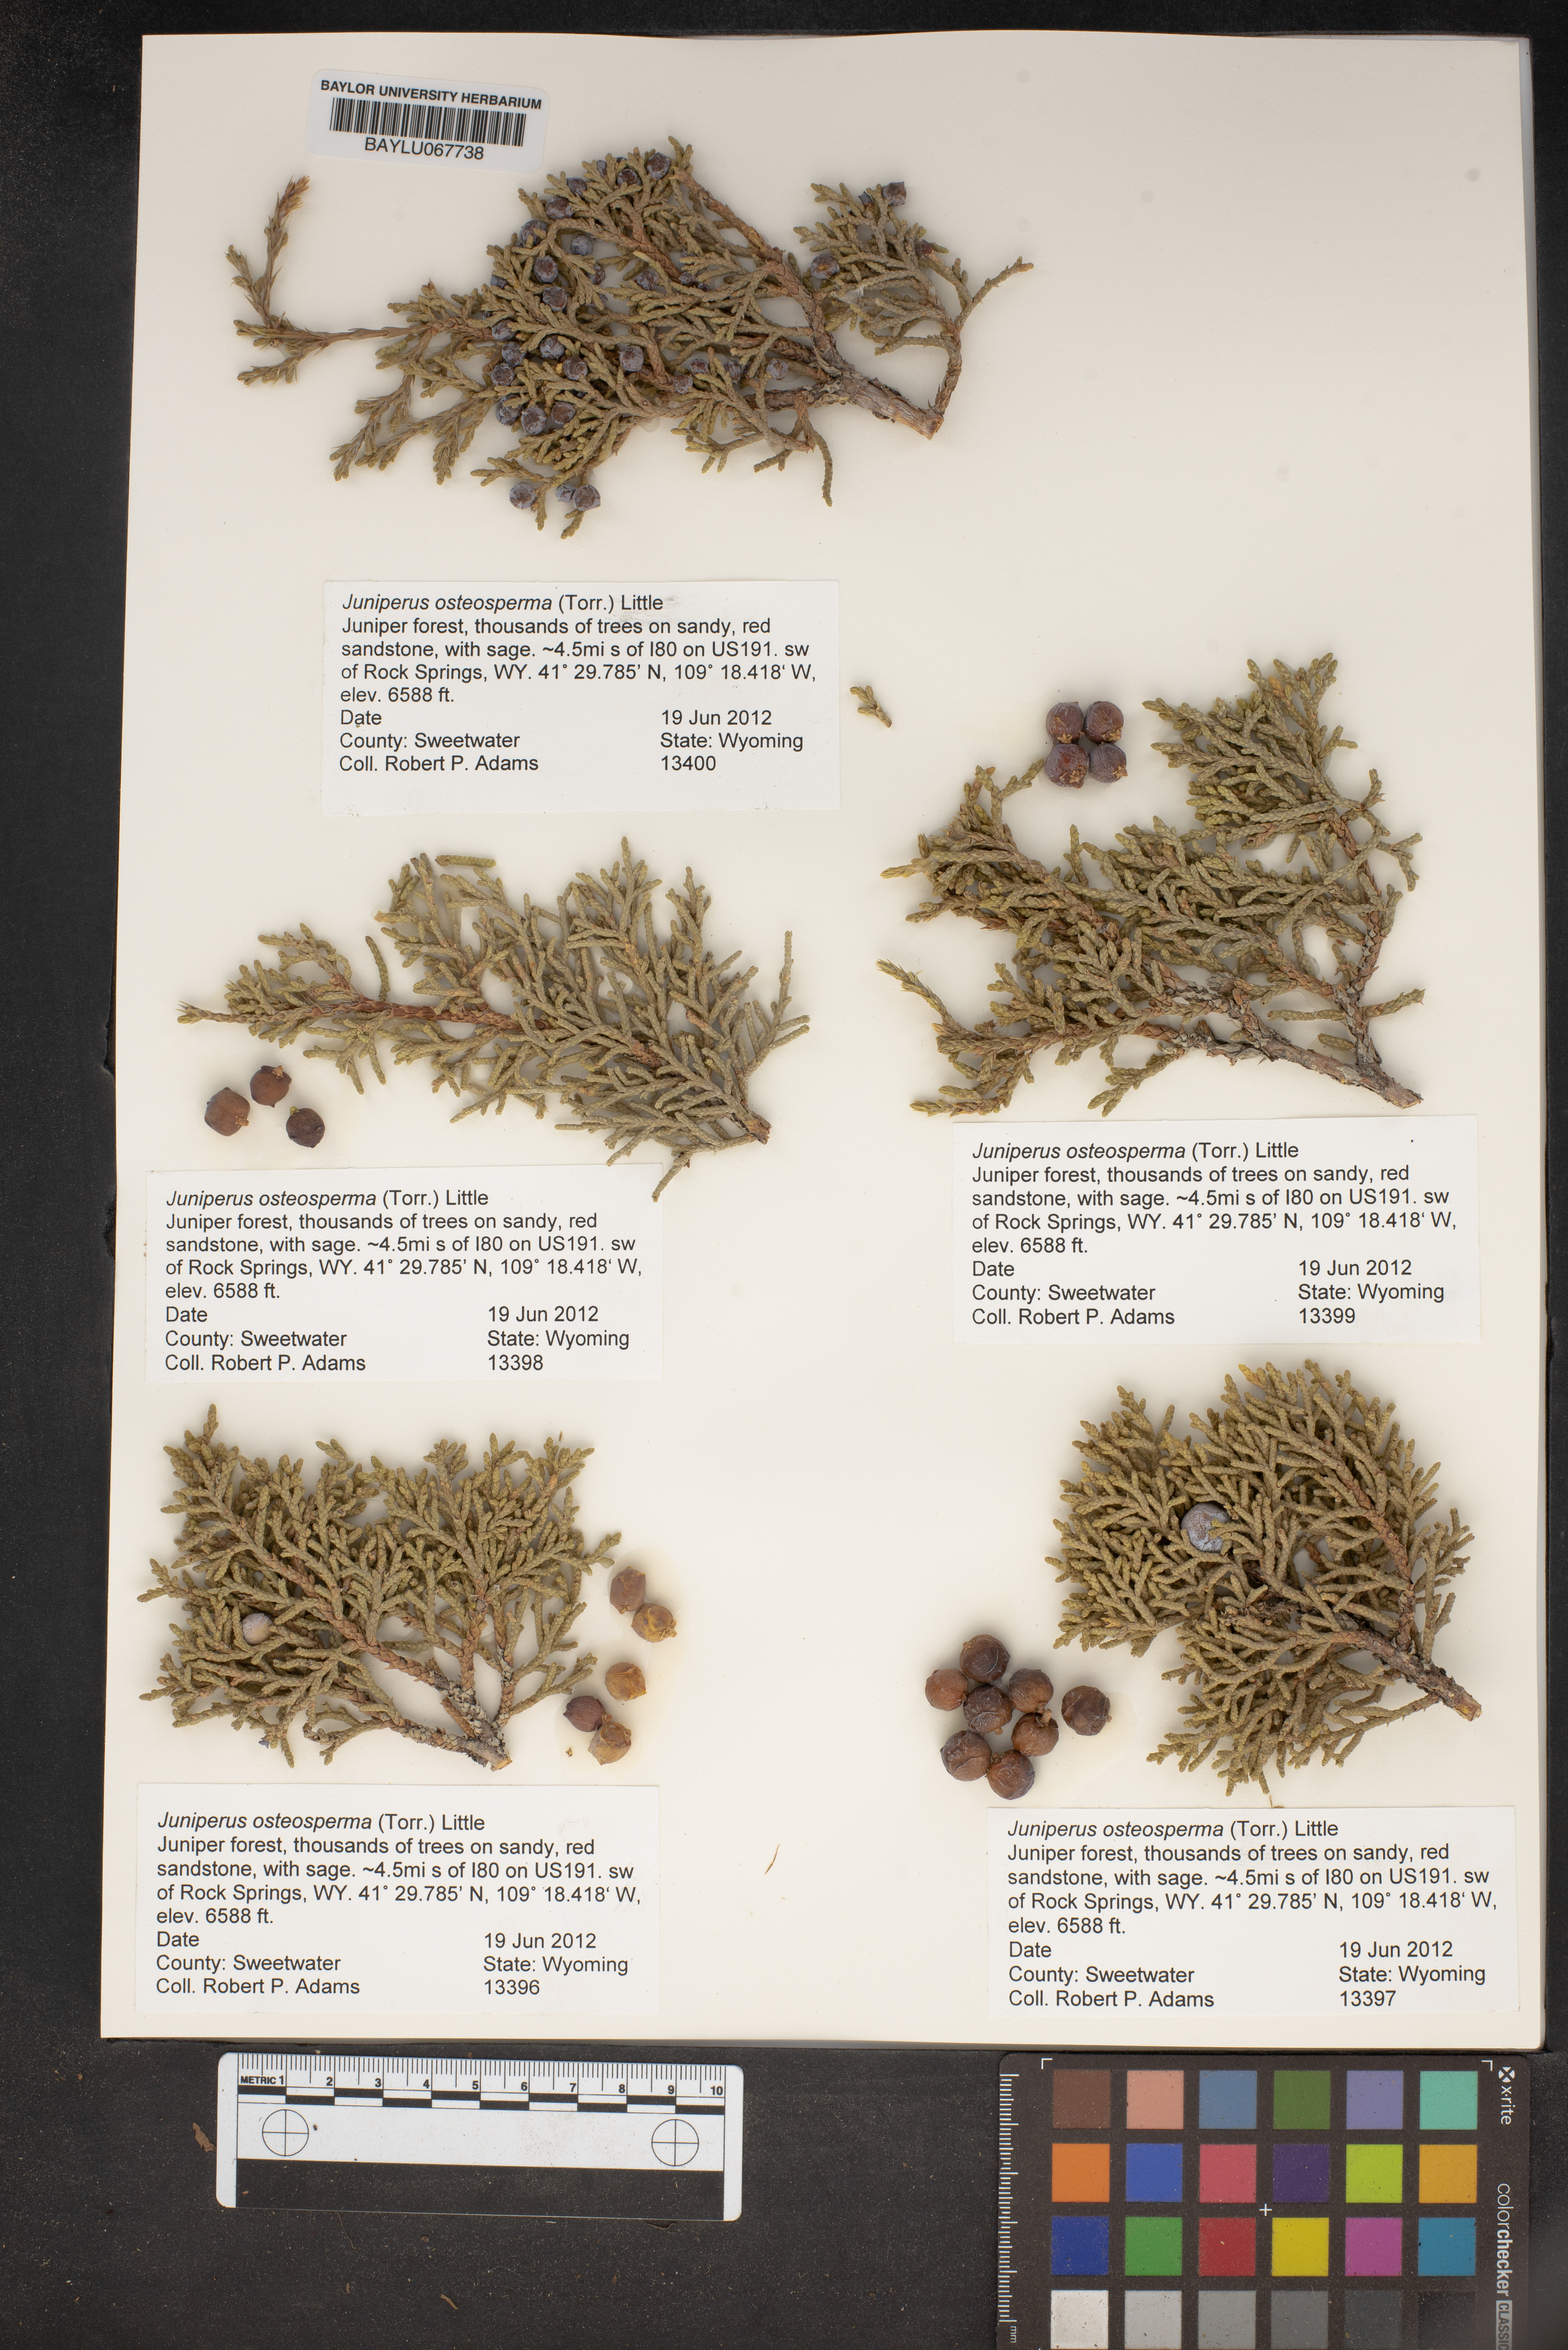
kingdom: Plantae
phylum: Tracheophyta
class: Pinopsida
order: Pinales
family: Cupressaceae
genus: Juniperus
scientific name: Juniperus osteosperma
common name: Utah juniper
